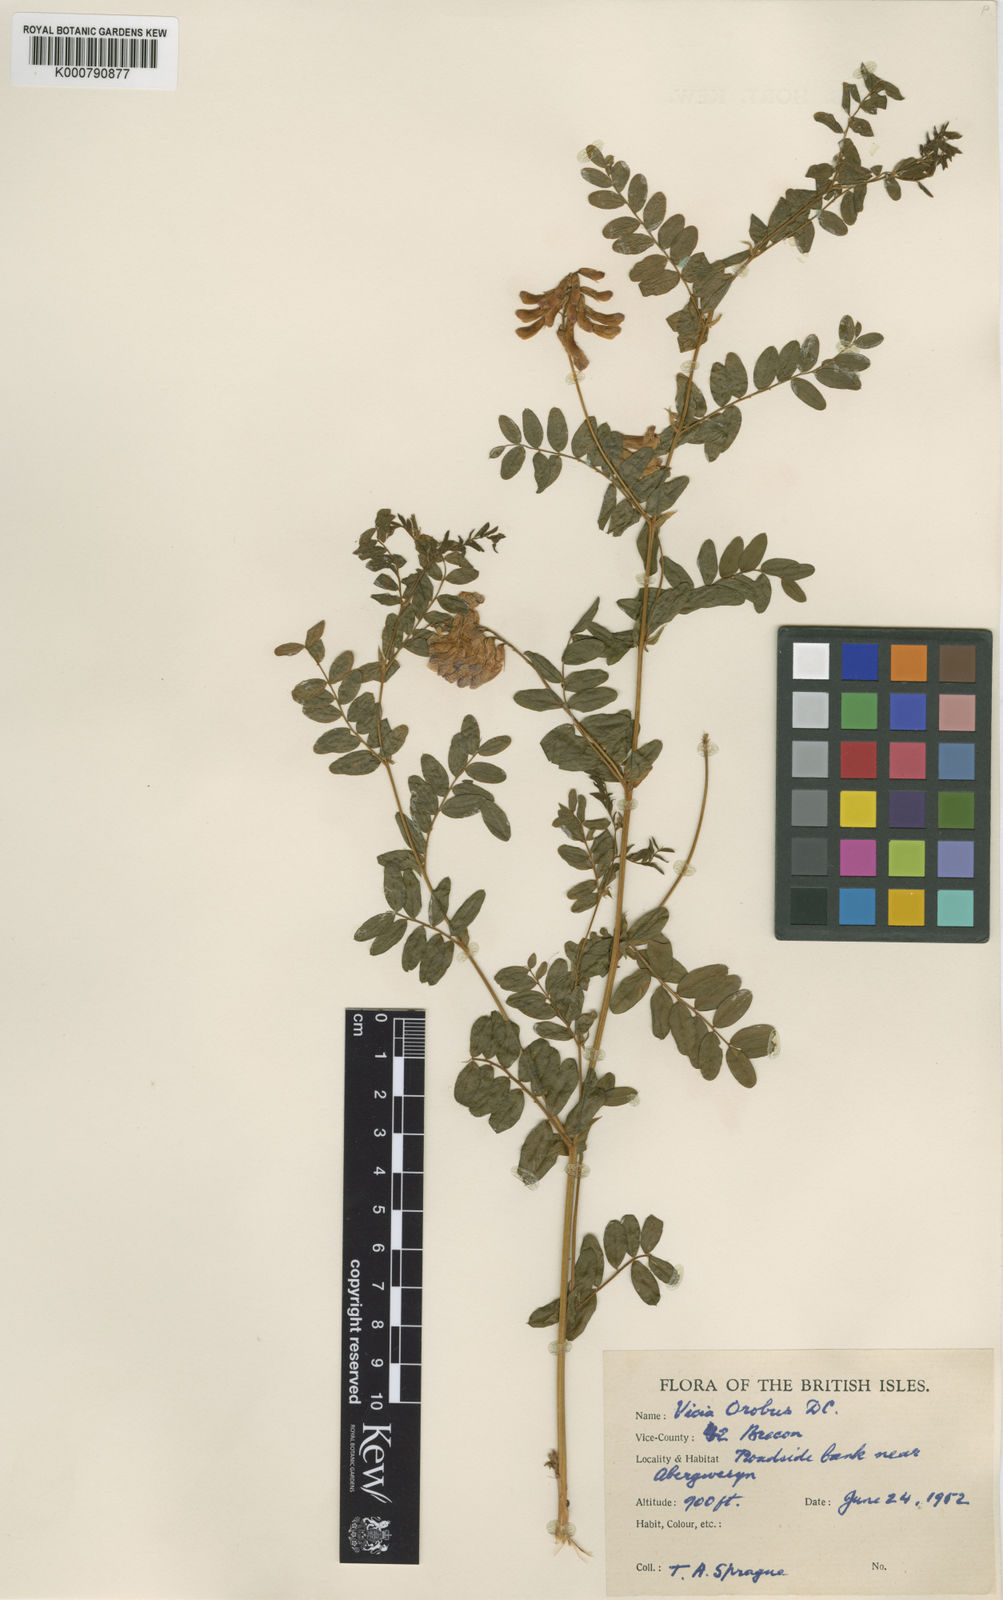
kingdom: Plantae
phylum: Tracheophyta
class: Magnoliopsida
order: Fabales
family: Fabaceae
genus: Vicia
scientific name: Vicia orobus
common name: Wood bitter-vetch
